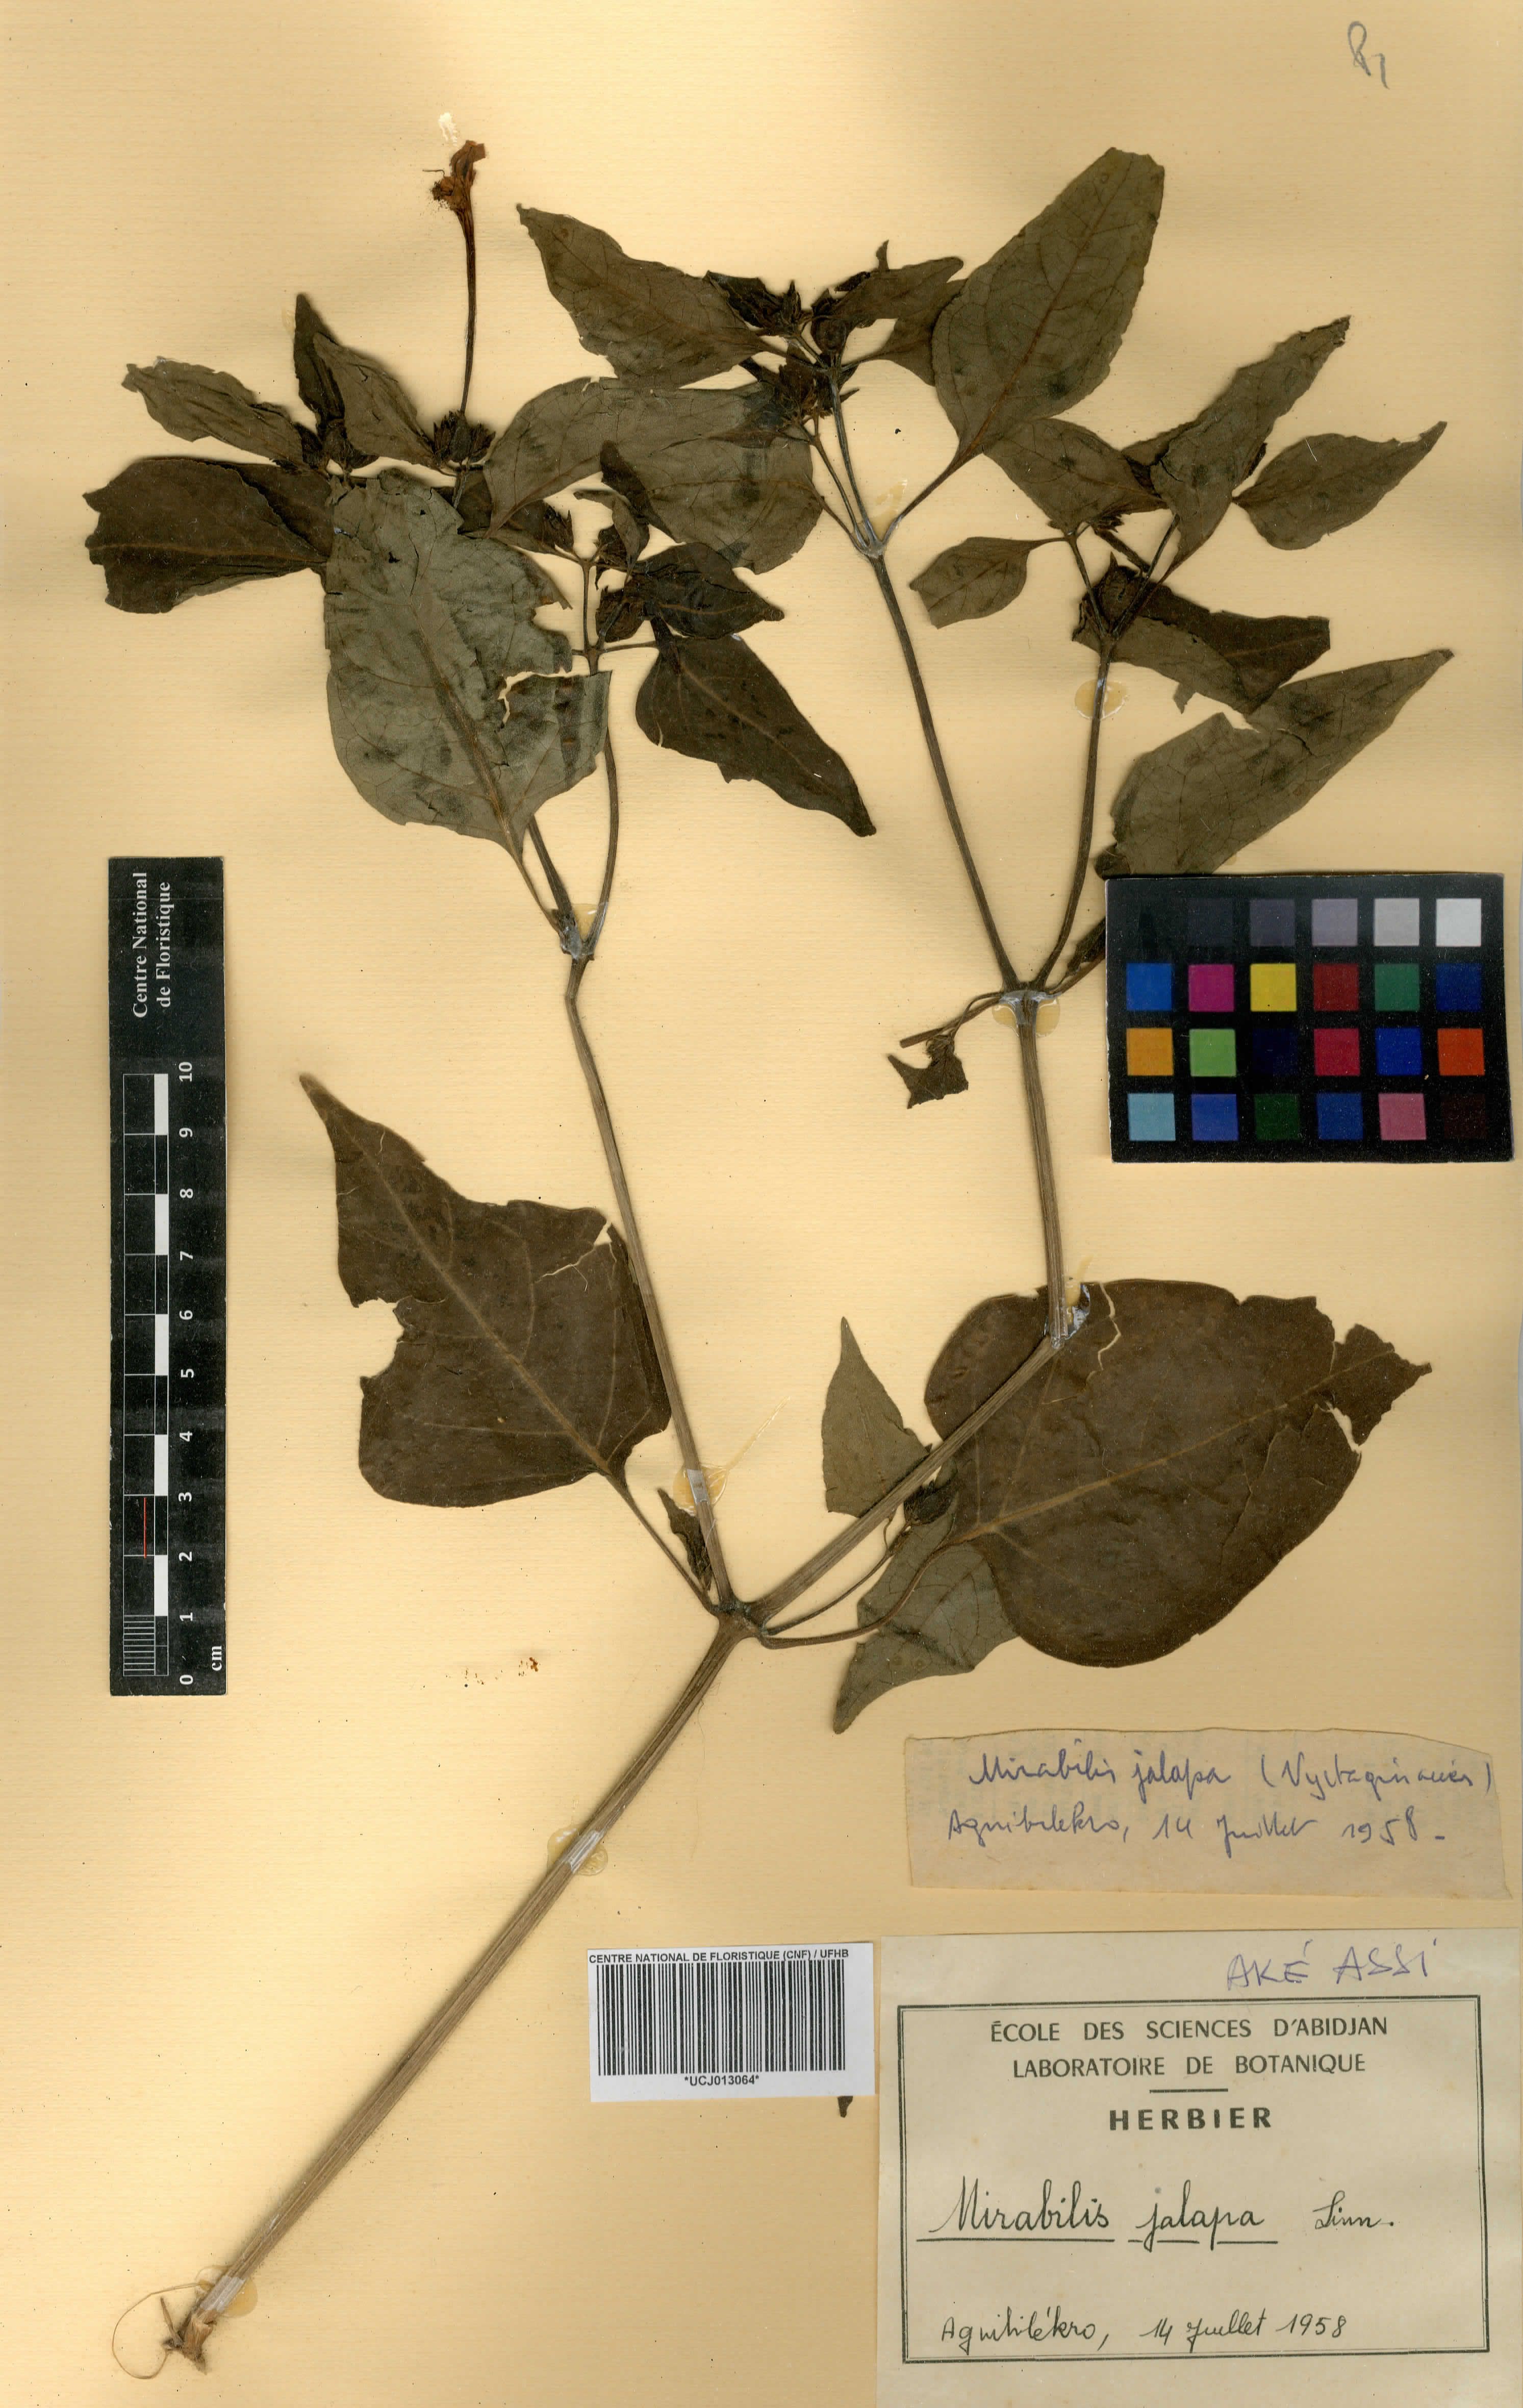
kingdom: Plantae
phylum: Tracheophyta
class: Magnoliopsida
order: Caryophyllales
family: Nyctaginaceae
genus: Mirabilis
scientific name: Mirabilis jalapa
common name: Marvel-of-peru
